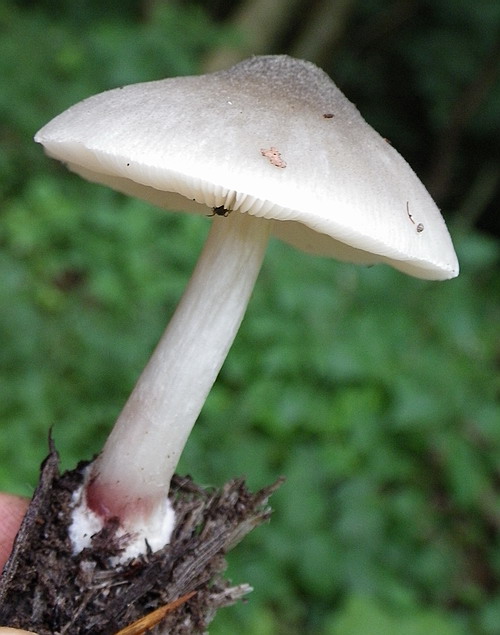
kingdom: Fungi
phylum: Basidiomycota
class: Agaricomycetes
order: Agaricales
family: Pluteaceae
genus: Pluteus
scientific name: Pluteus salicinus
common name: stiv skærmhat
